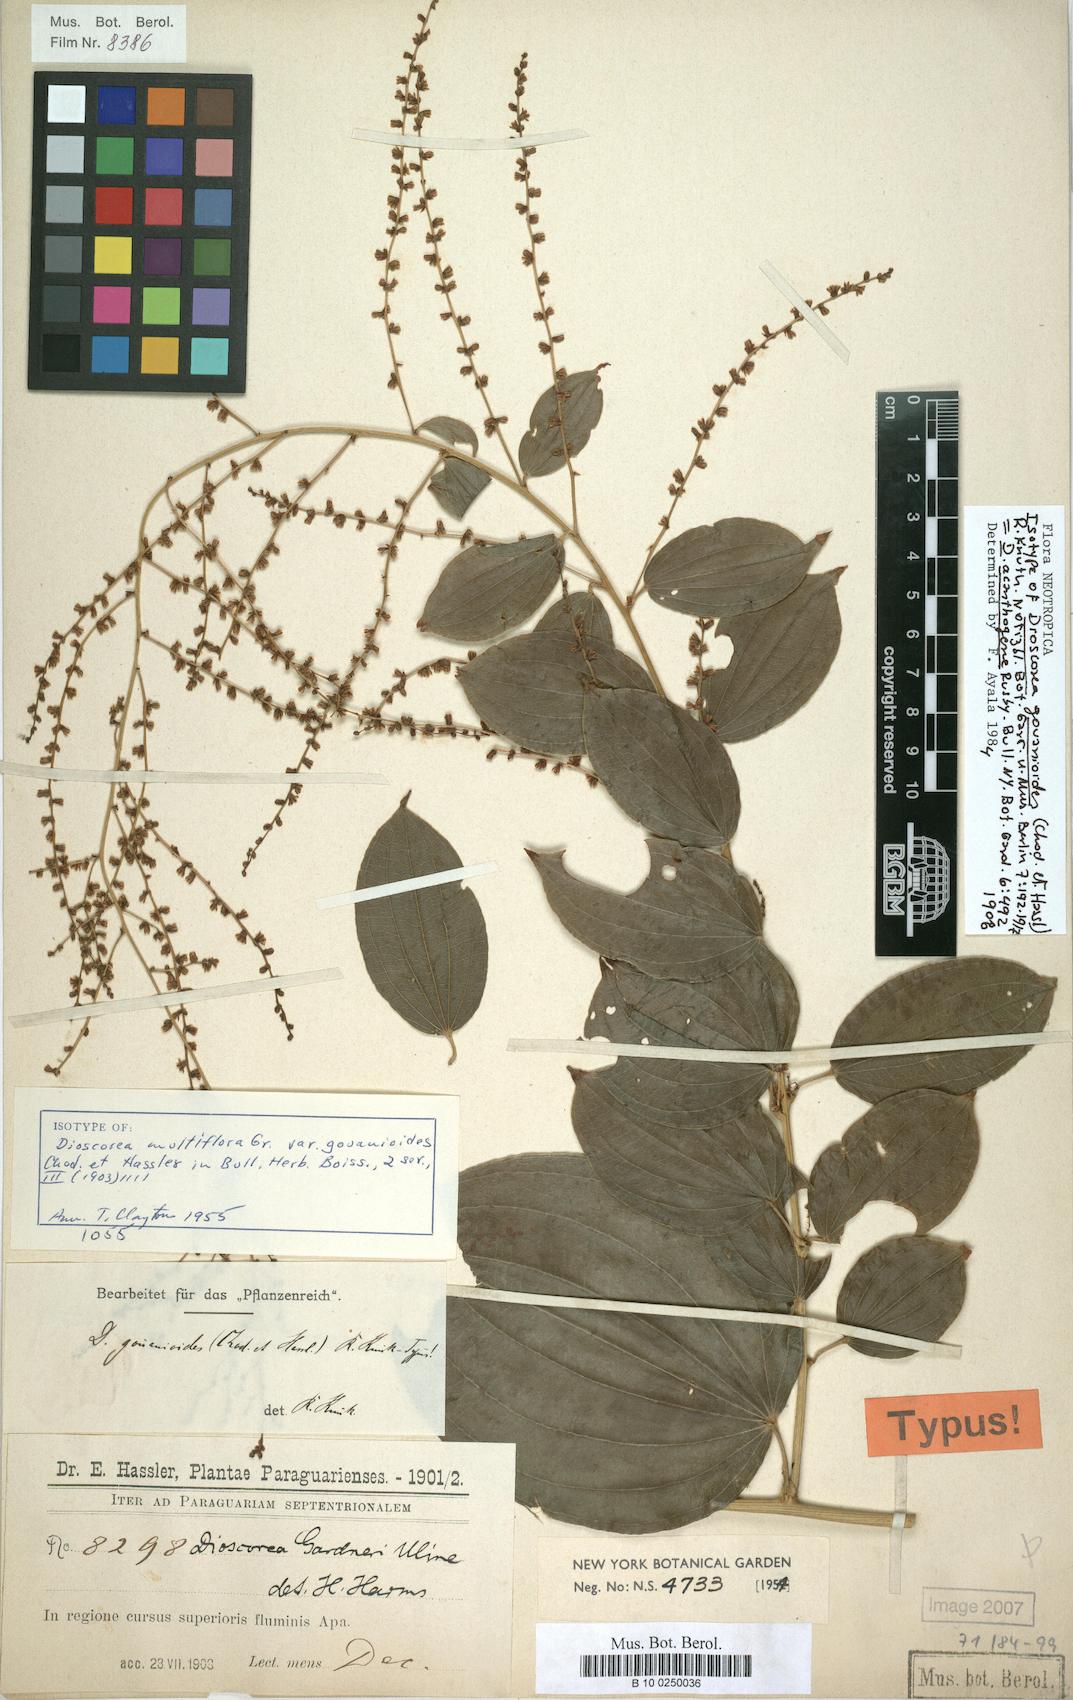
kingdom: Plantae
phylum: Tracheophyta
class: Liliopsida
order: Dioscoreales
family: Dioscoreaceae
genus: Dioscorea
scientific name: Dioscorea acanthogene
